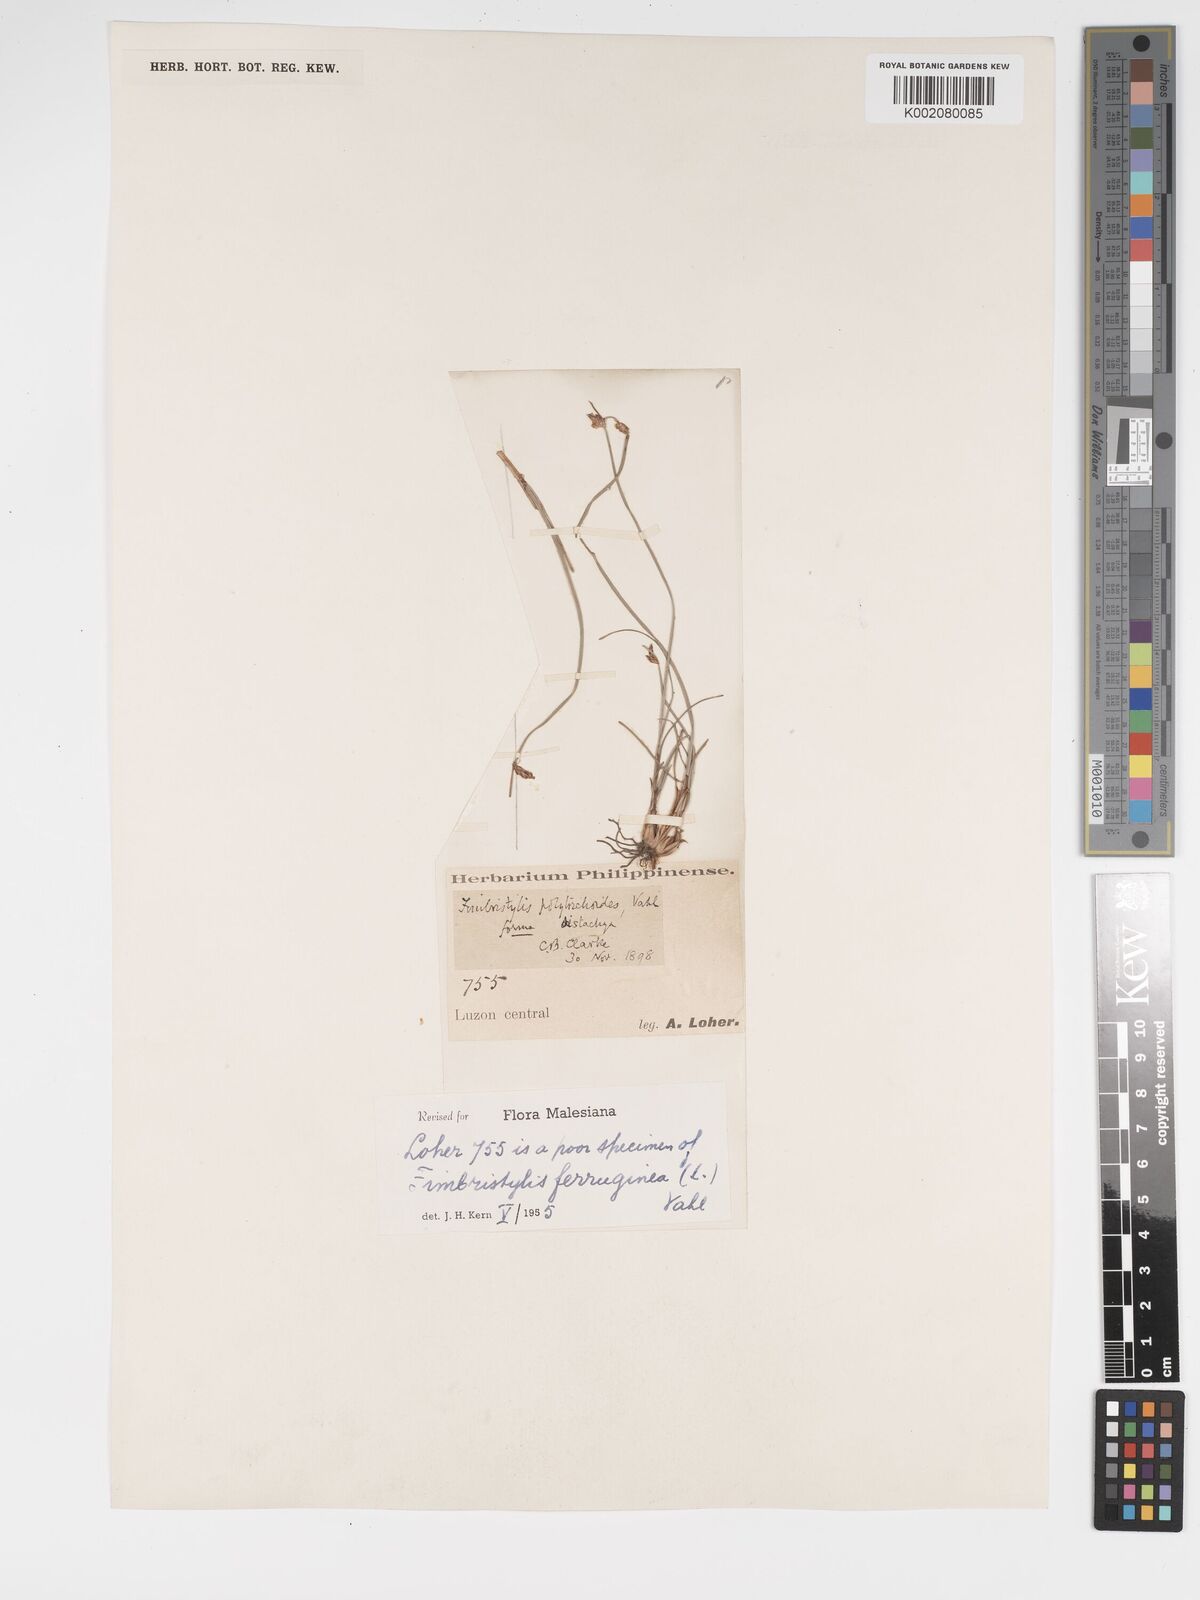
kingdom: Plantae
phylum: Tracheophyta
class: Liliopsida
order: Poales
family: Cyperaceae
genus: Fimbristylis
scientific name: Fimbristylis ferruginea
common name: West indian fimbry
